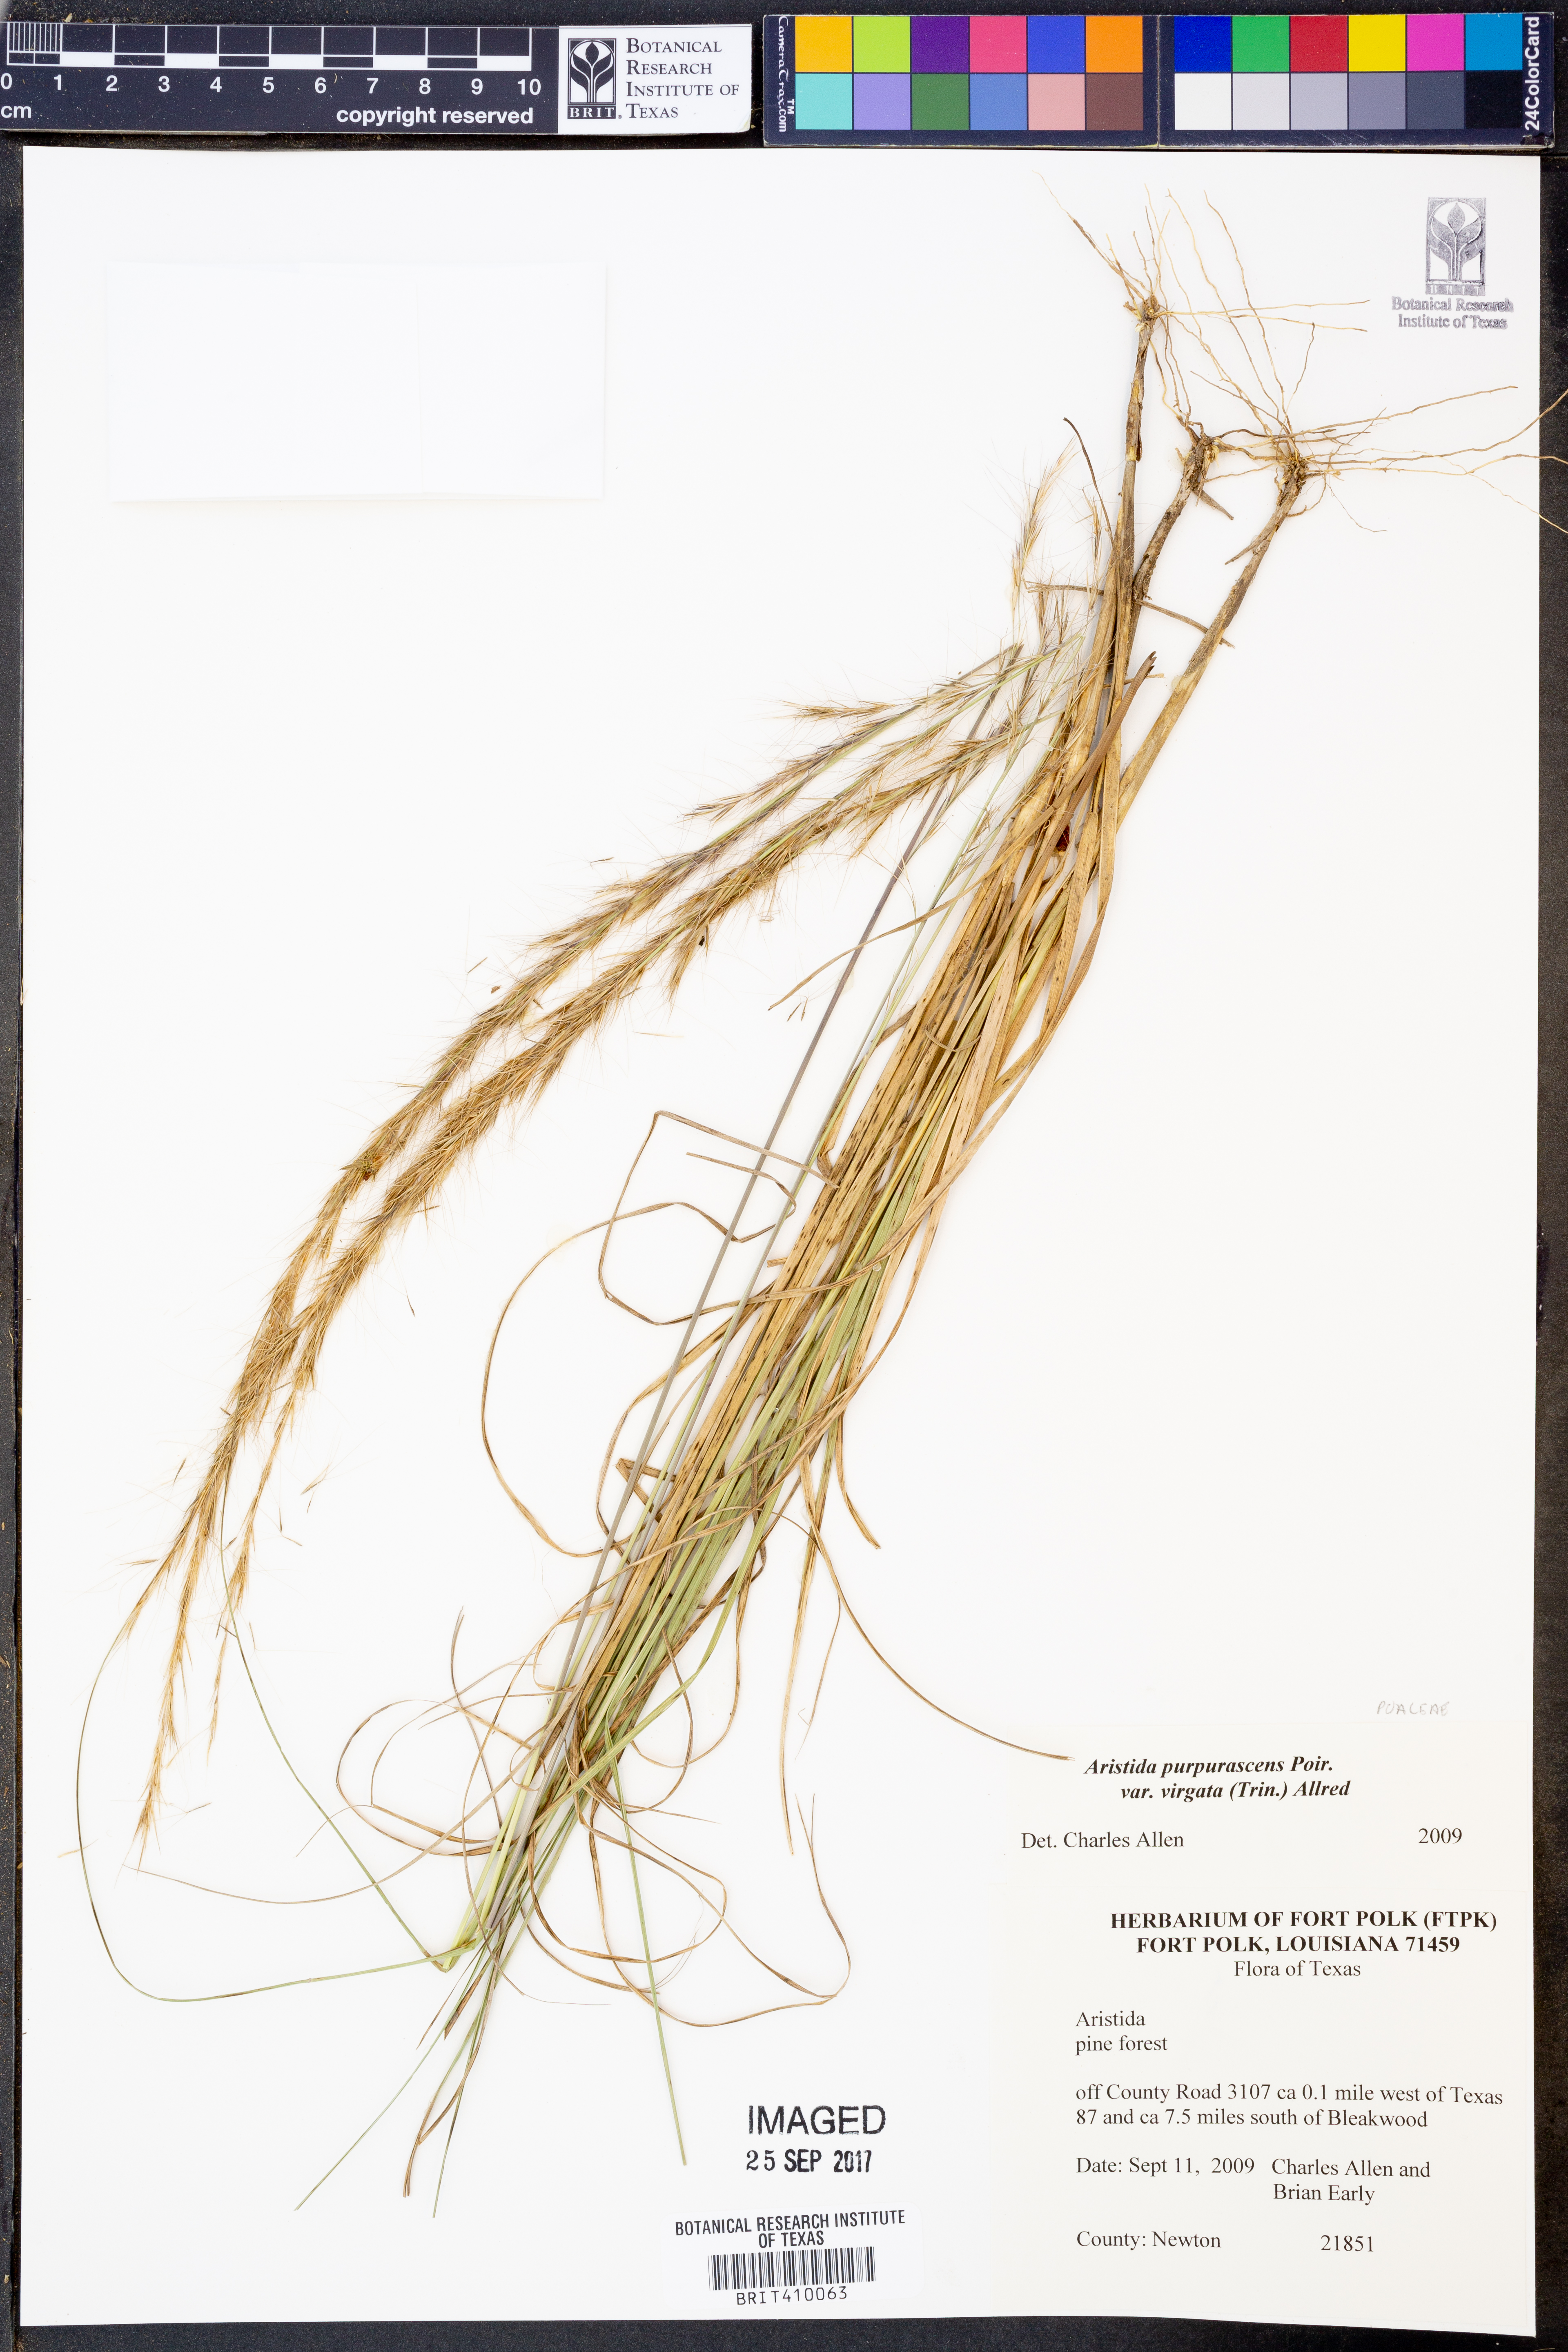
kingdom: Plantae
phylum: Tracheophyta
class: Liliopsida
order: Poales
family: Poaceae
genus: Aristida
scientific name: Aristida virgata
